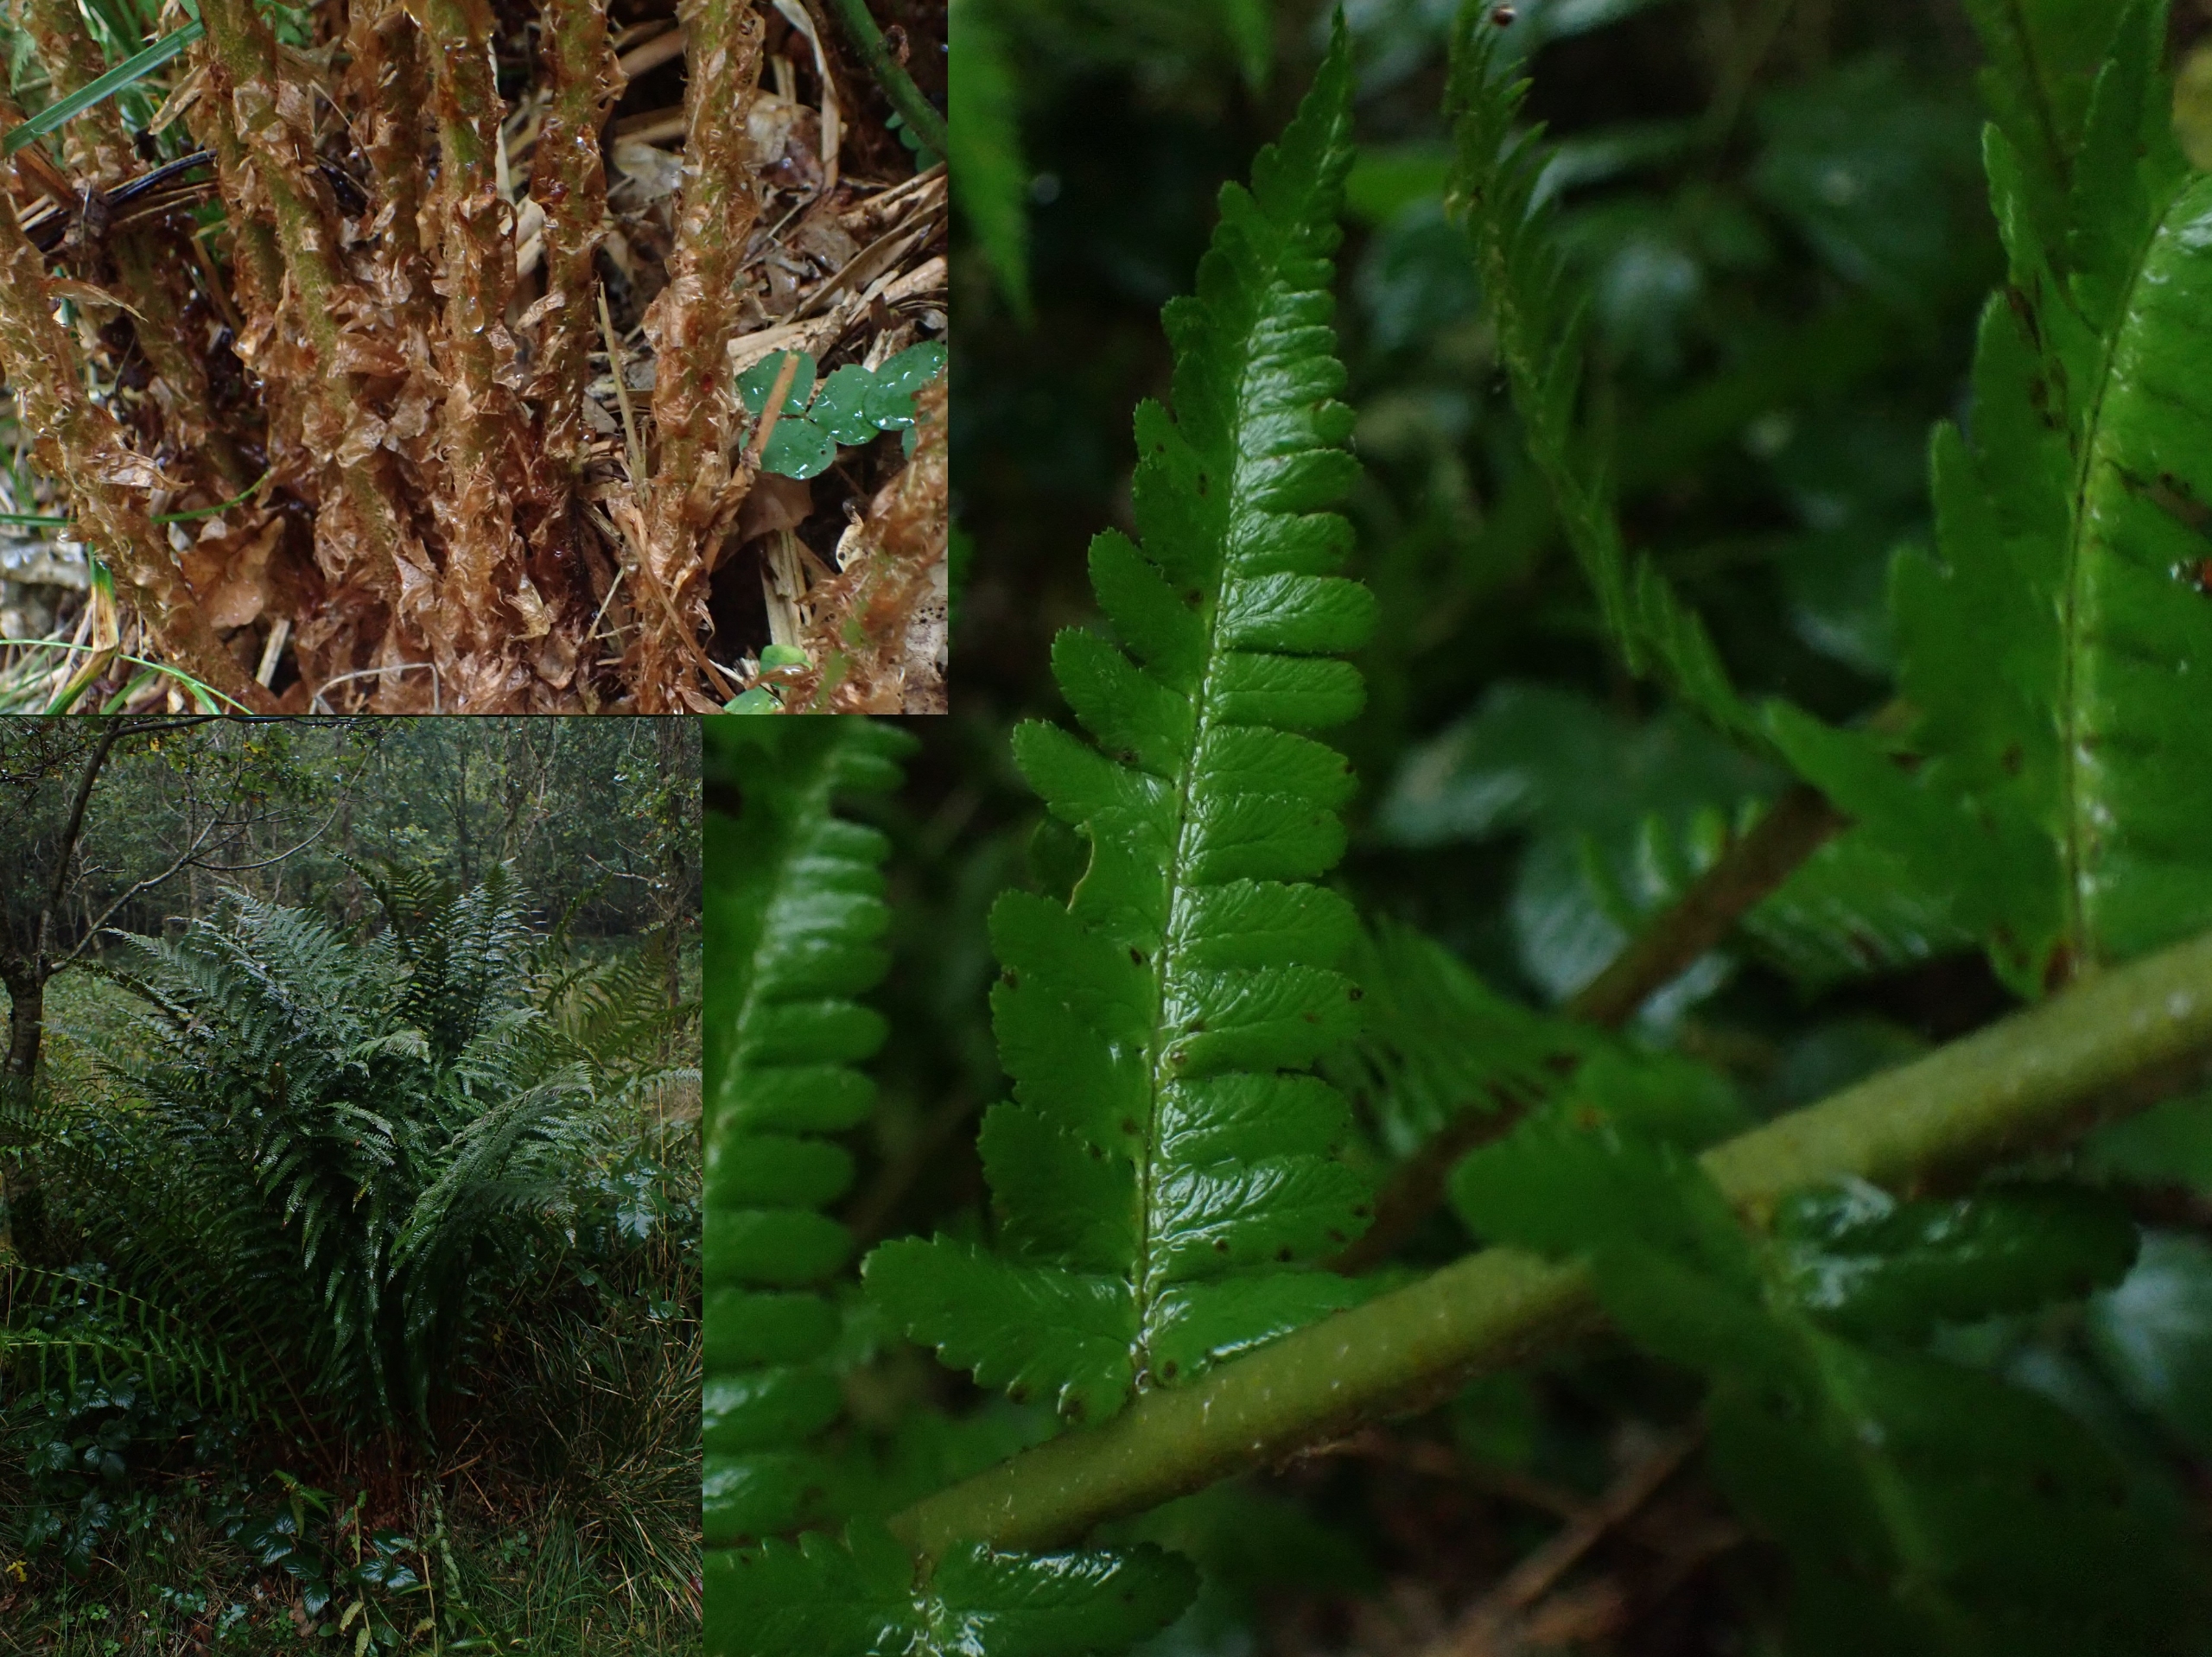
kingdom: Plantae
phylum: Tracheophyta
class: Polypodiopsida
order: Polypodiales
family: Dryopteridaceae
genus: Dryopteris
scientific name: Dryopteris filix-mas
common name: Almindelig mangeløv
